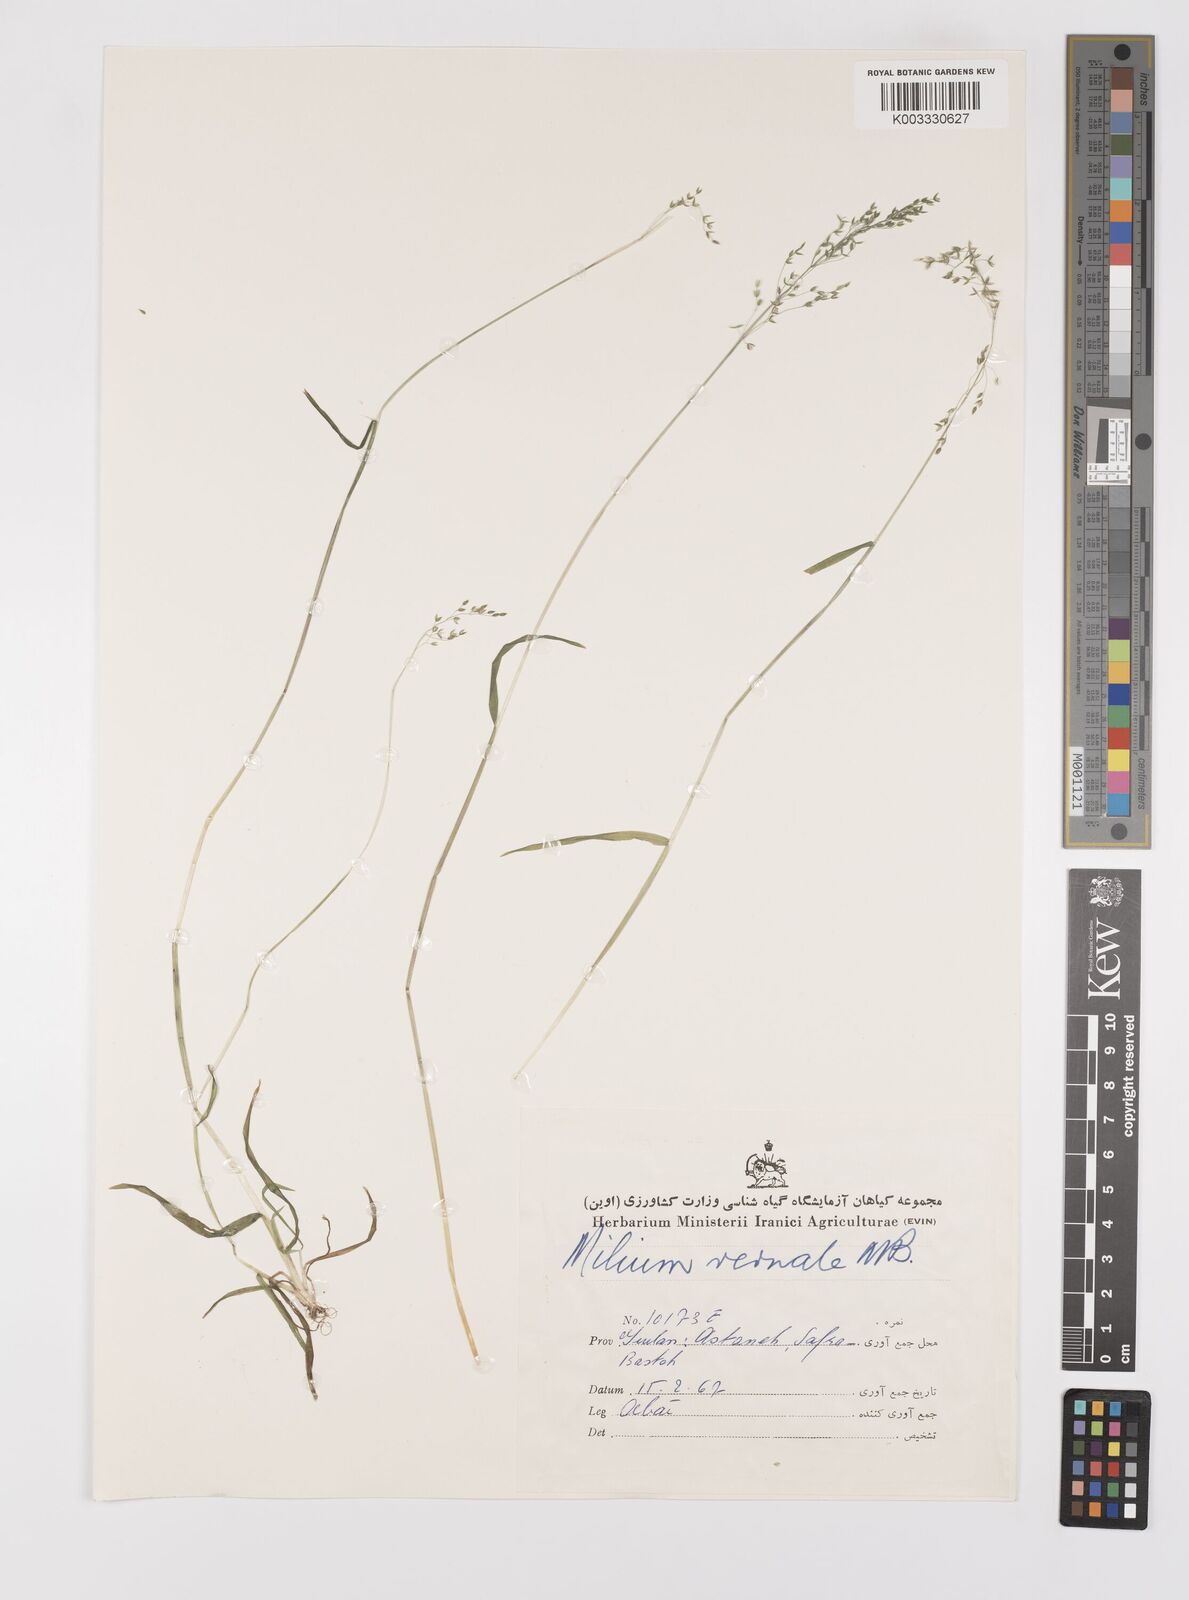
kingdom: Plantae
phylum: Tracheophyta
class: Liliopsida
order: Poales
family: Poaceae
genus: Milium
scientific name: Milium vernale
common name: Early millet
